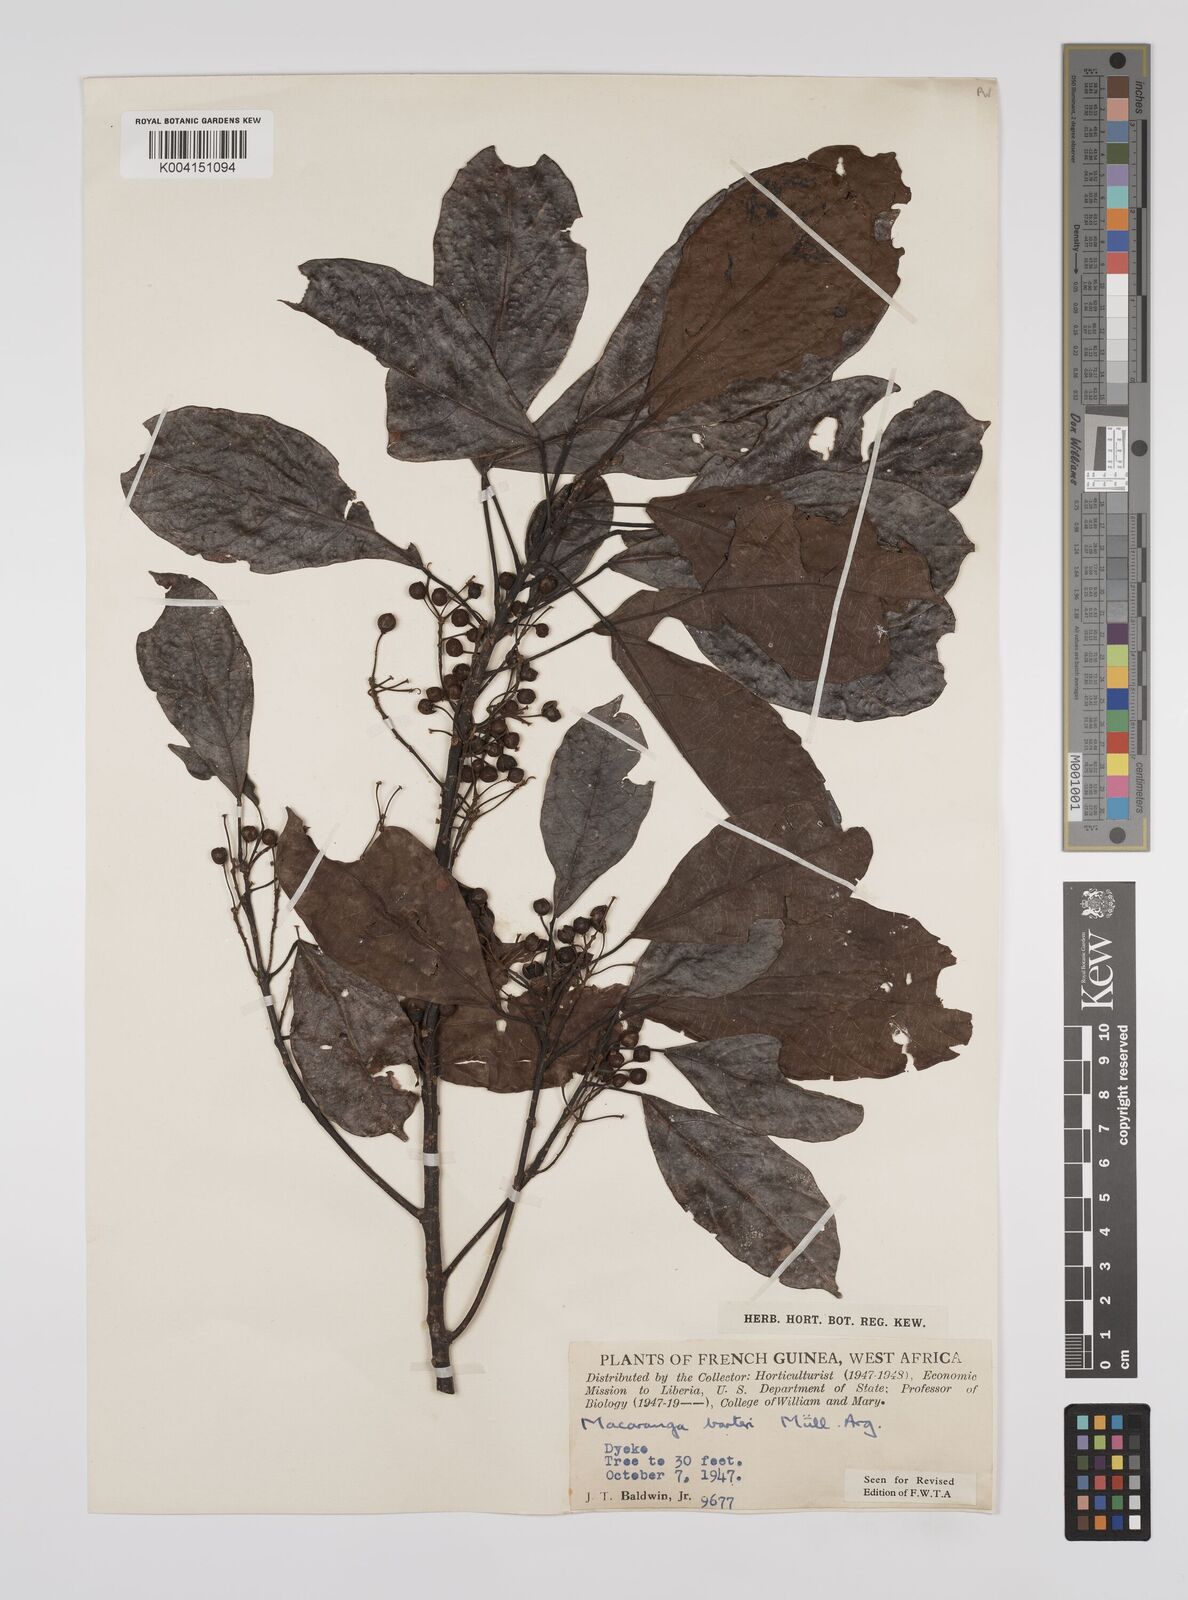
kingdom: Plantae
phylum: Tracheophyta
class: Magnoliopsida
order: Malpighiales
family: Euphorbiaceae
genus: Macaranga
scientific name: Macaranga barteri
